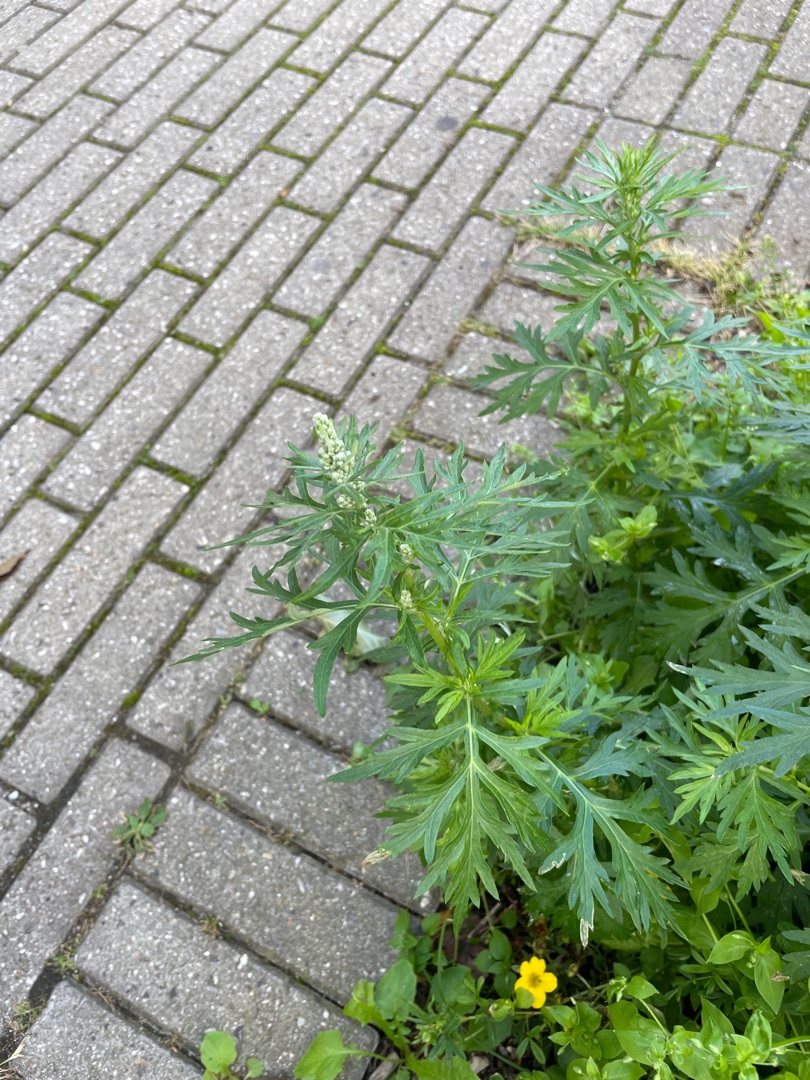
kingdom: Plantae
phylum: Tracheophyta
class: Magnoliopsida
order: Asterales
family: Asteraceae
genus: Artemisia
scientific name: Artemisia vulgaris
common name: Grå-bynke
